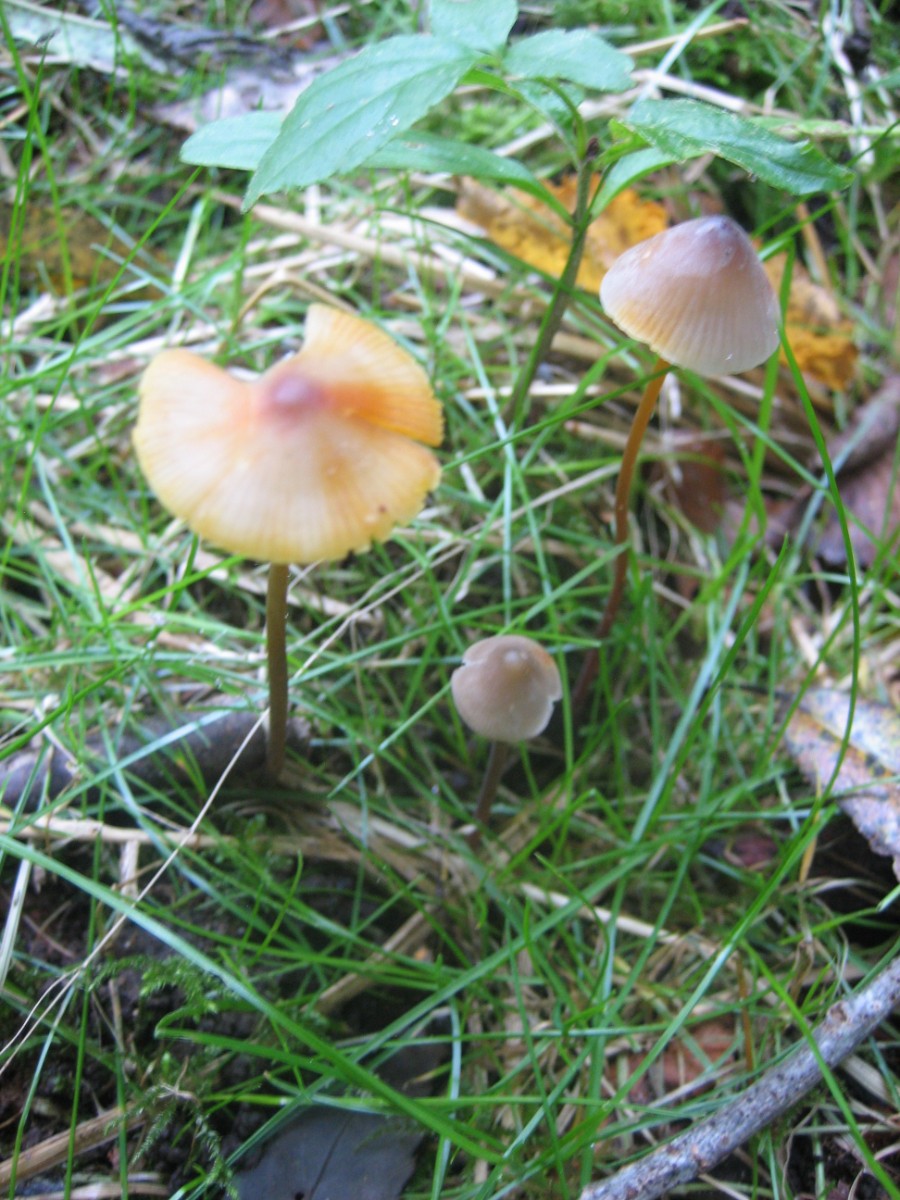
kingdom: Fungi
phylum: Basidiomycota
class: Agaricomycetes
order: Agaricales
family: Mycenaceae
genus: Mycena
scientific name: Mycena crocata
